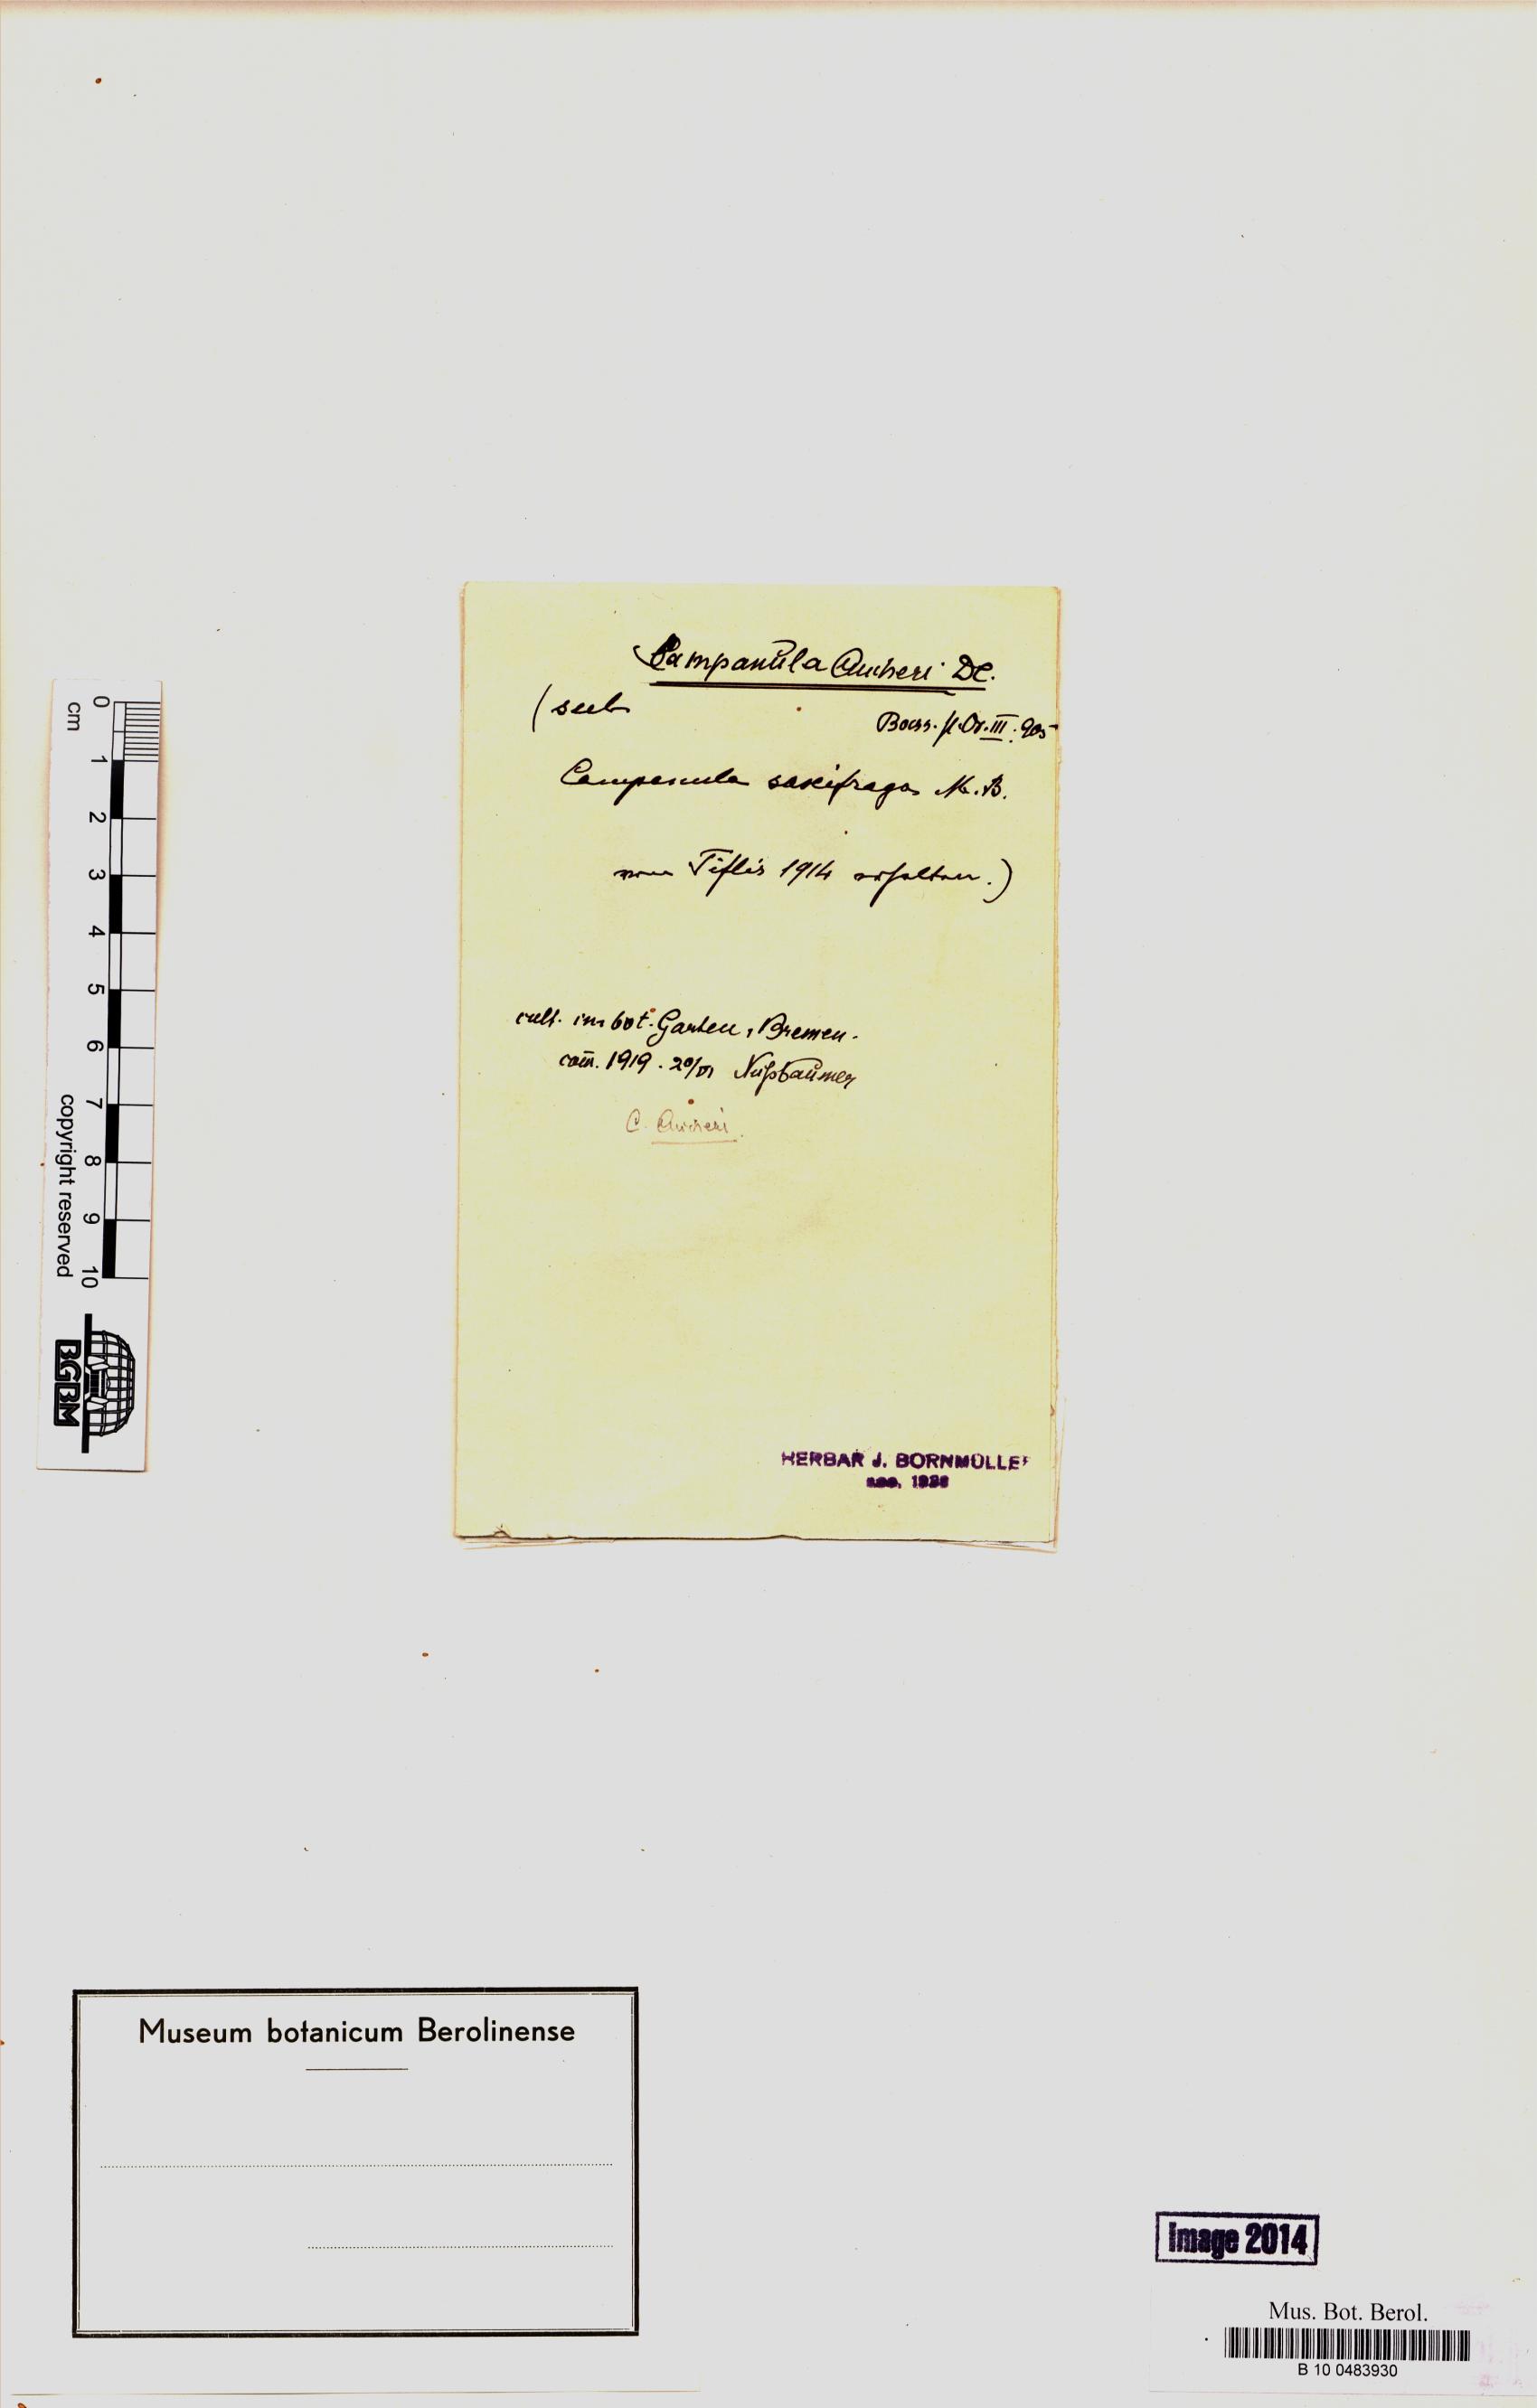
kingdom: Plantae
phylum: Tracheophyta
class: Magnoliopsida
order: Asterales
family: Campanulaceae
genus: Campanula
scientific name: Campanula saxifraga
